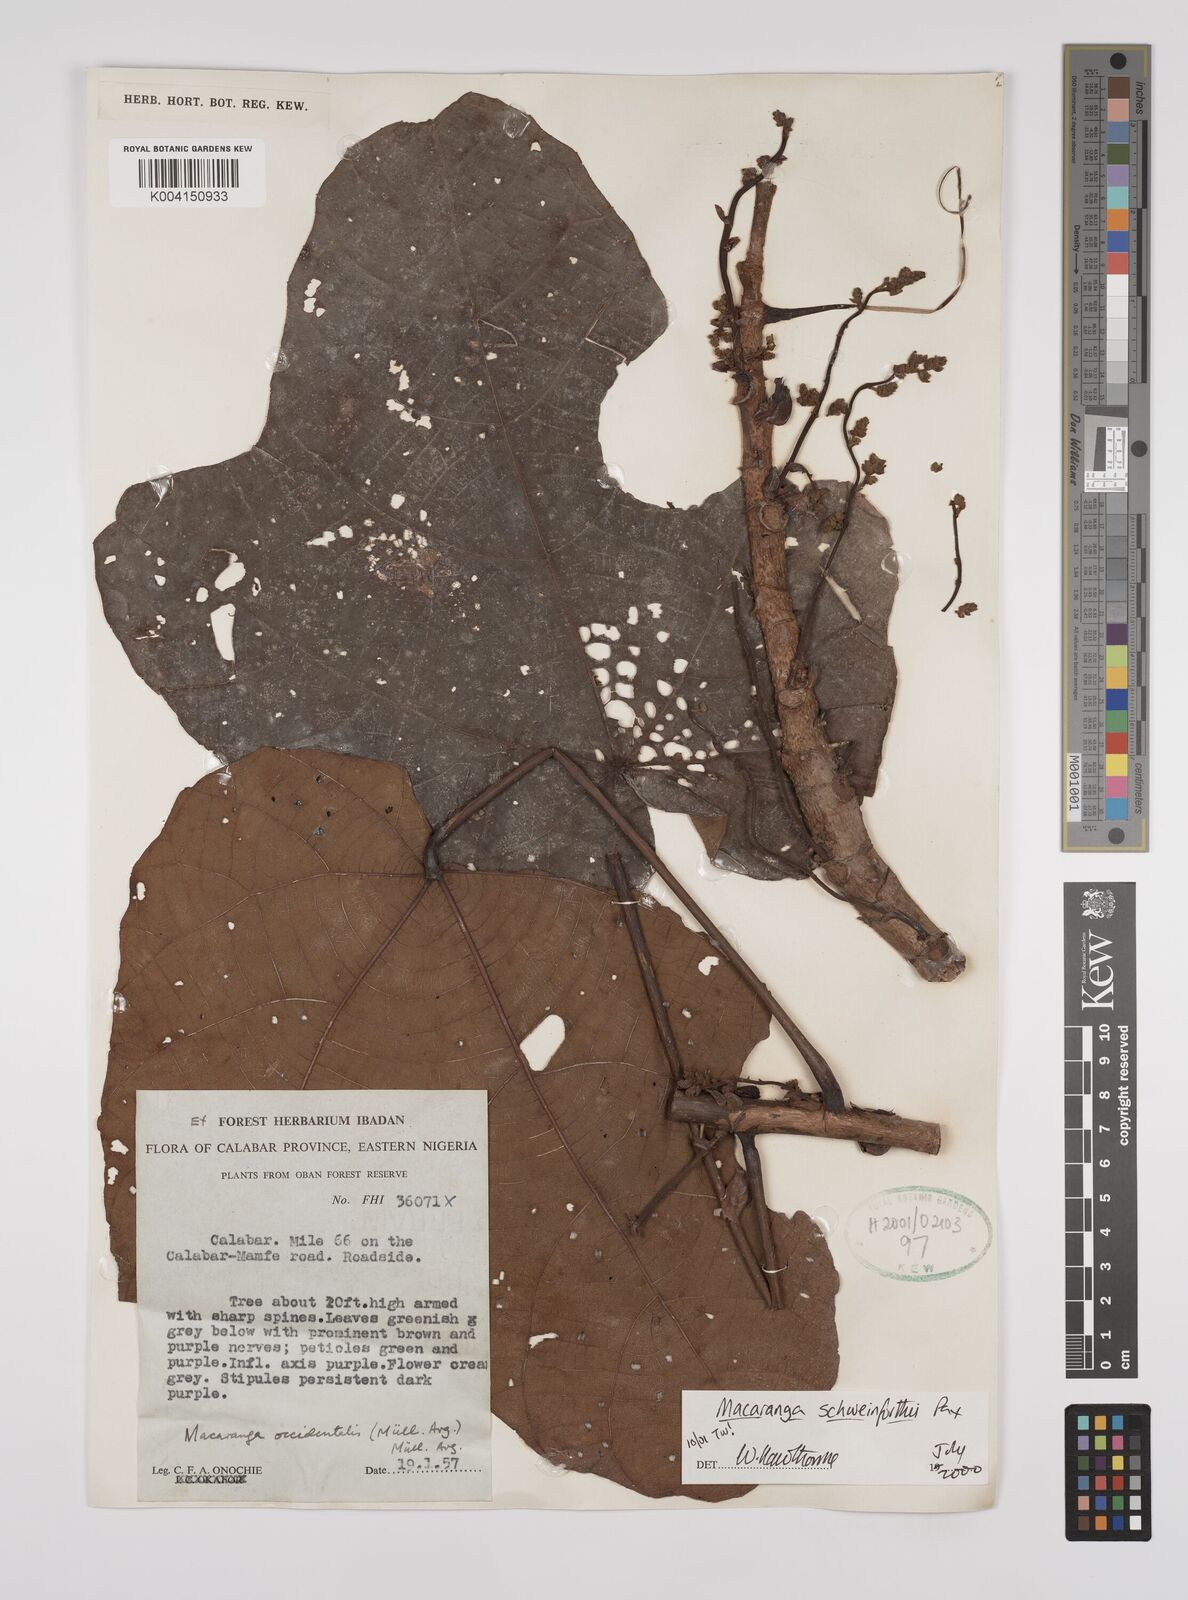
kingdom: Plantae
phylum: Tracheophyta
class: Magnoliopsida
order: Malpighiales
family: Euphorbiaceae
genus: Macaranga
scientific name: Macaranga schweinfurthii
